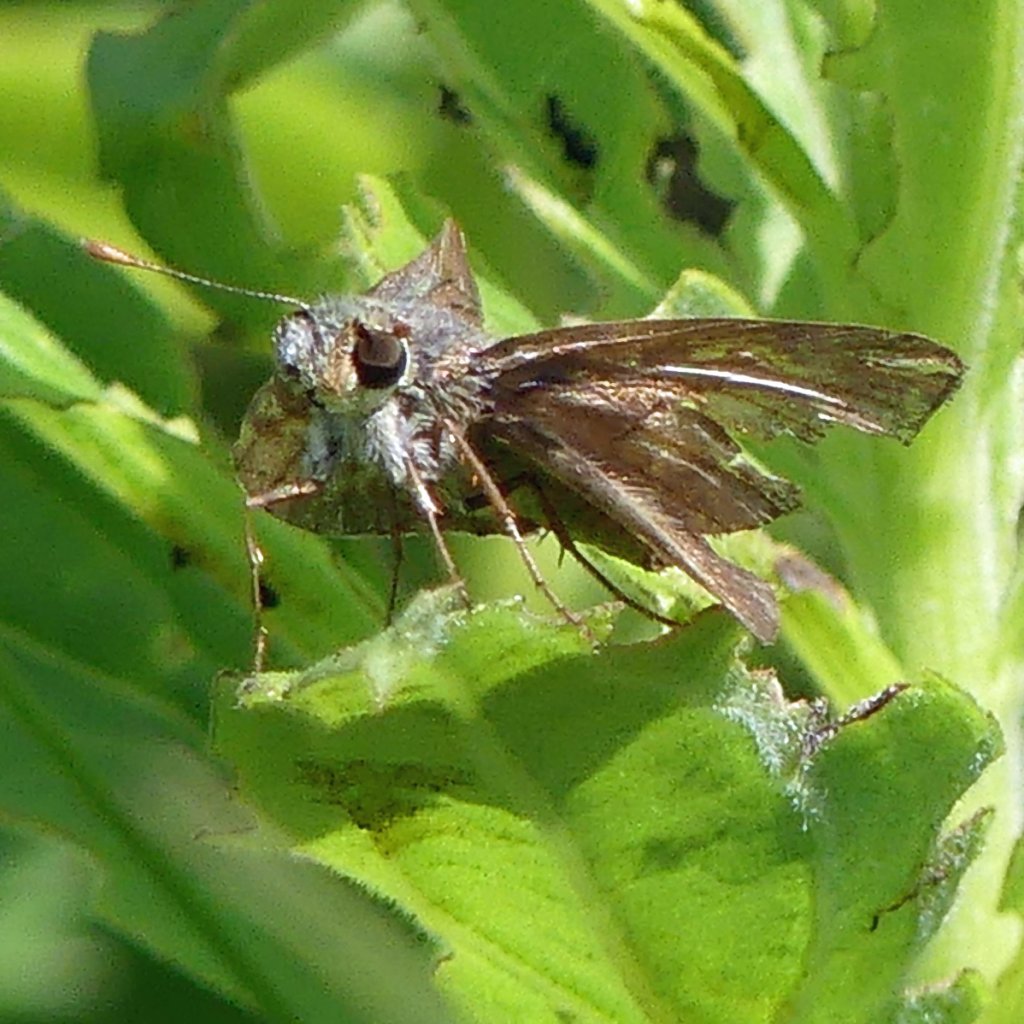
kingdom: Animalia
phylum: Arthropoda
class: Insecta
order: Lepidoptera
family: Hesperiidae
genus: Polites
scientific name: Polites egeremet
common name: Northern Broken-Dash
